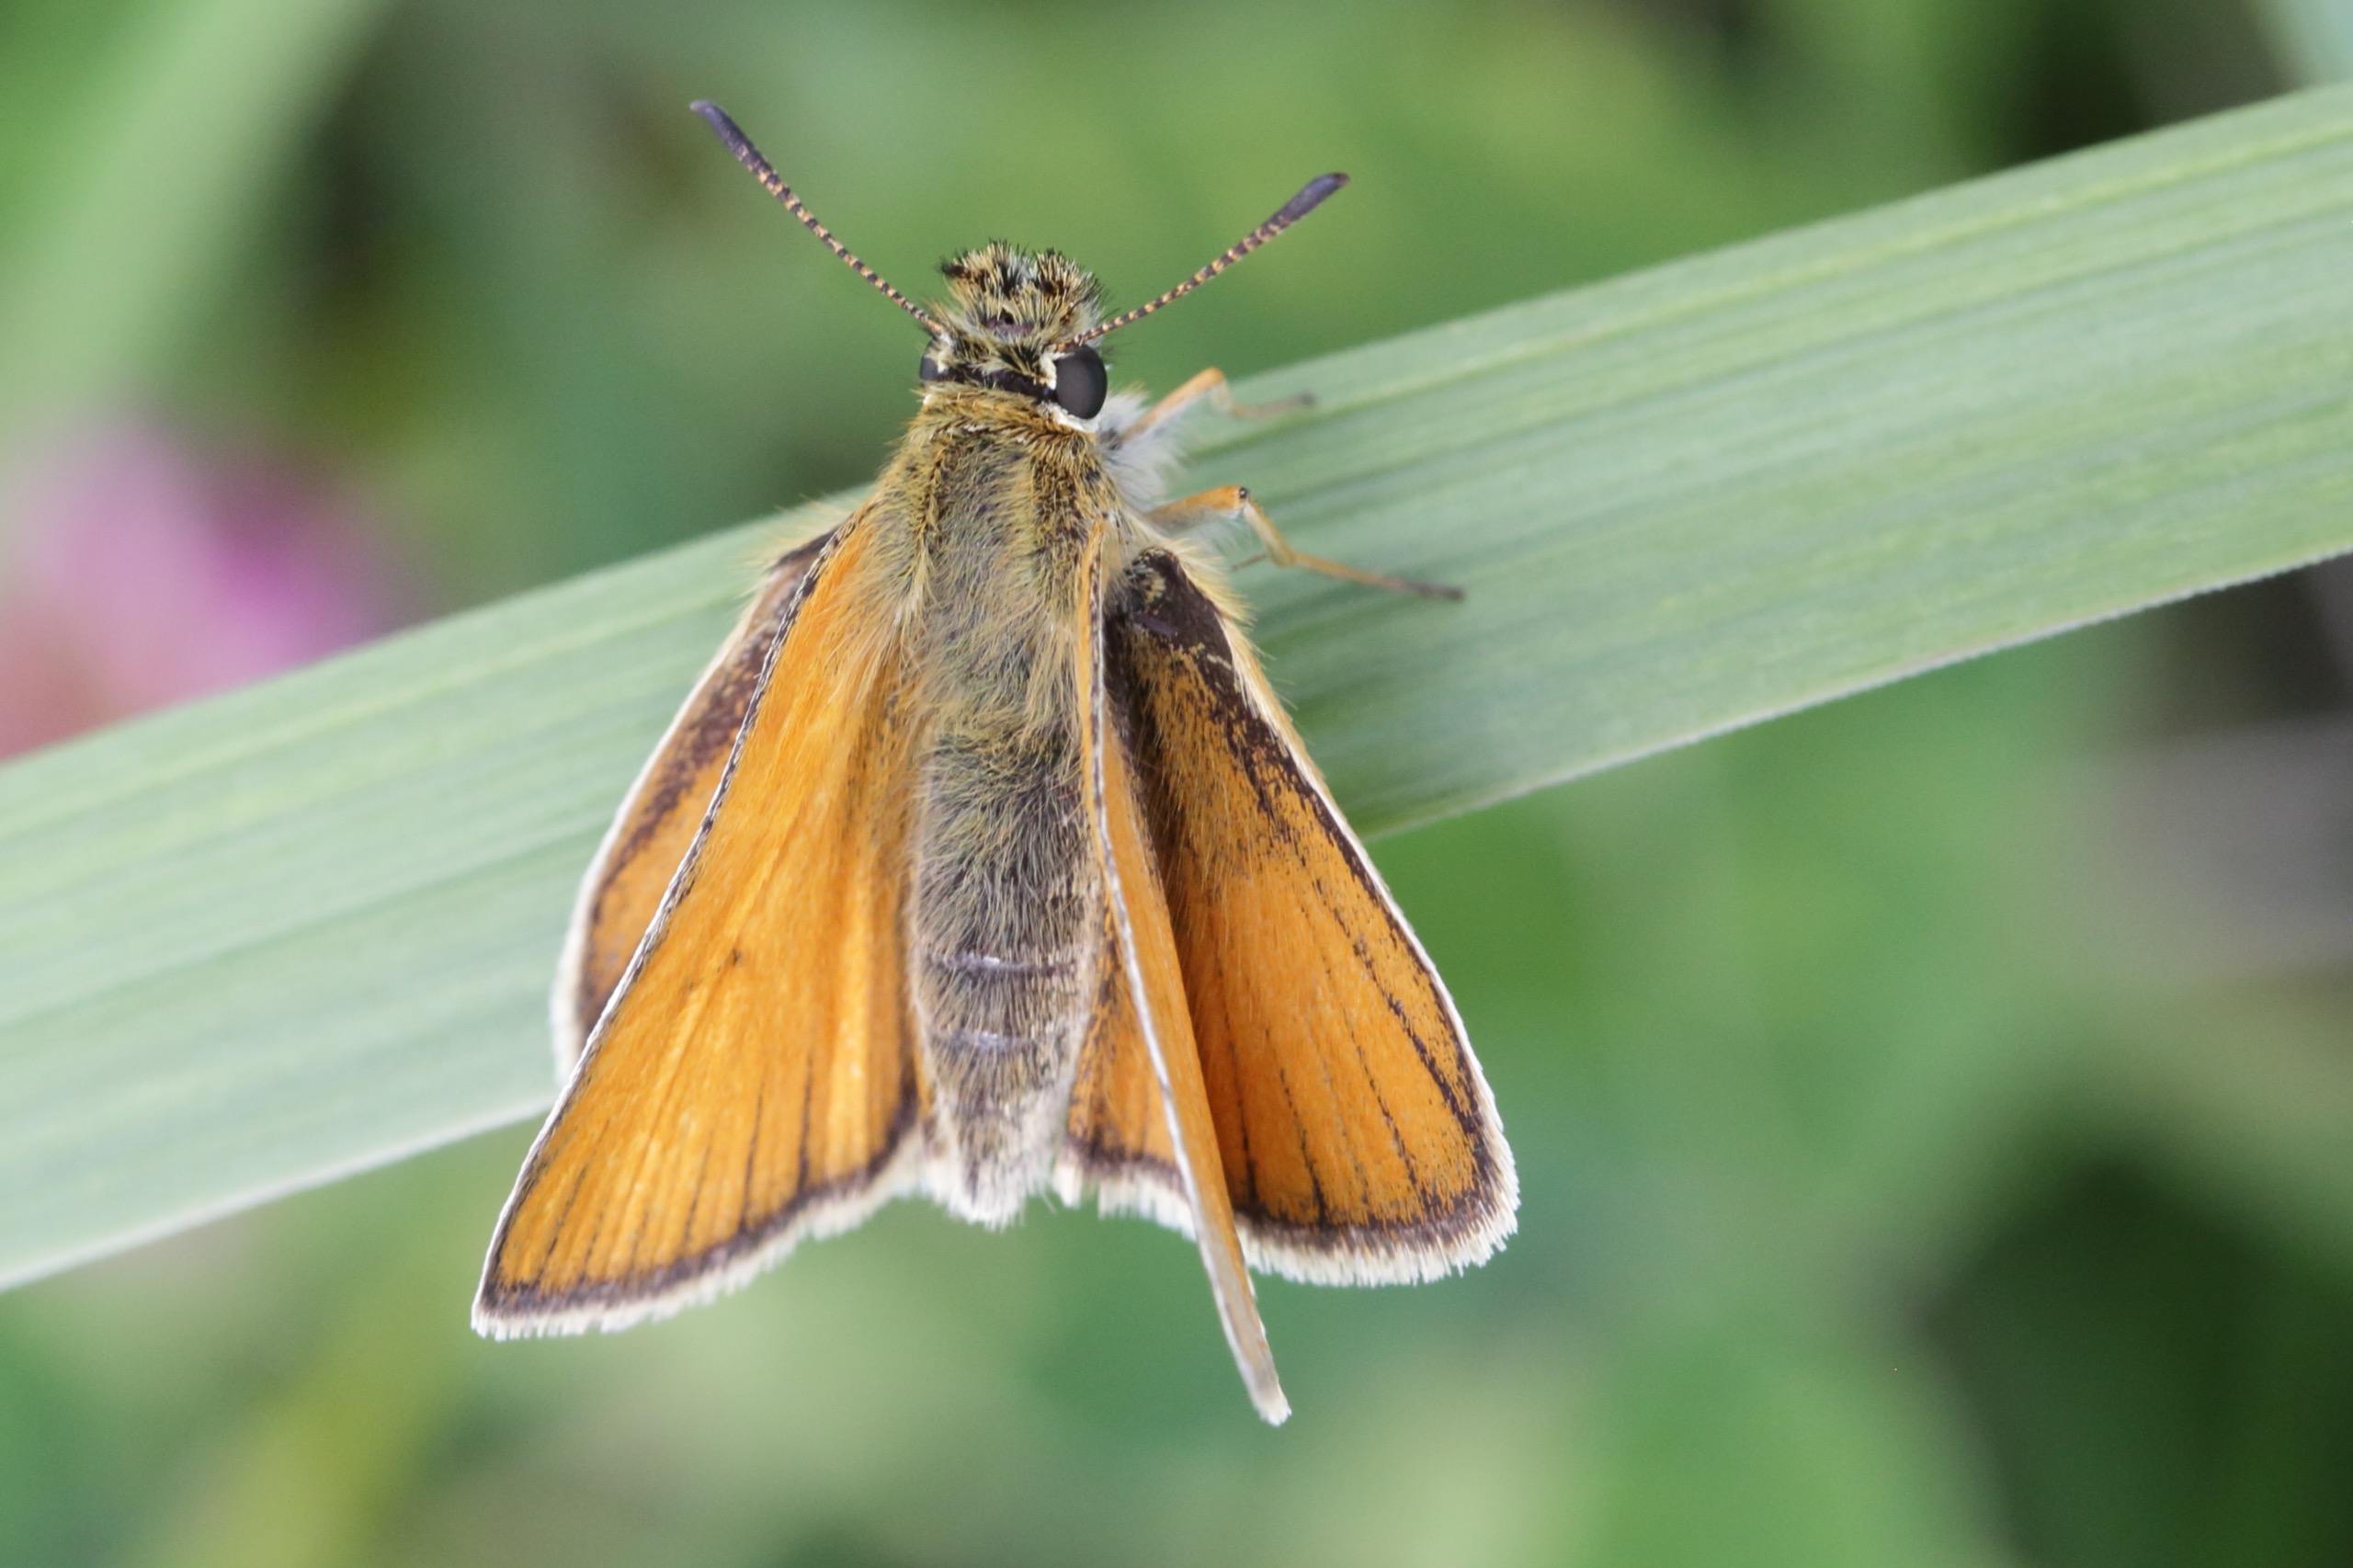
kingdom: Animalia
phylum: Arthropoda
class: Insecta
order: Lepidoptera
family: Hesperiidae
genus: Thymelicus
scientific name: Thymelicus lineola
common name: Stregbredpande
